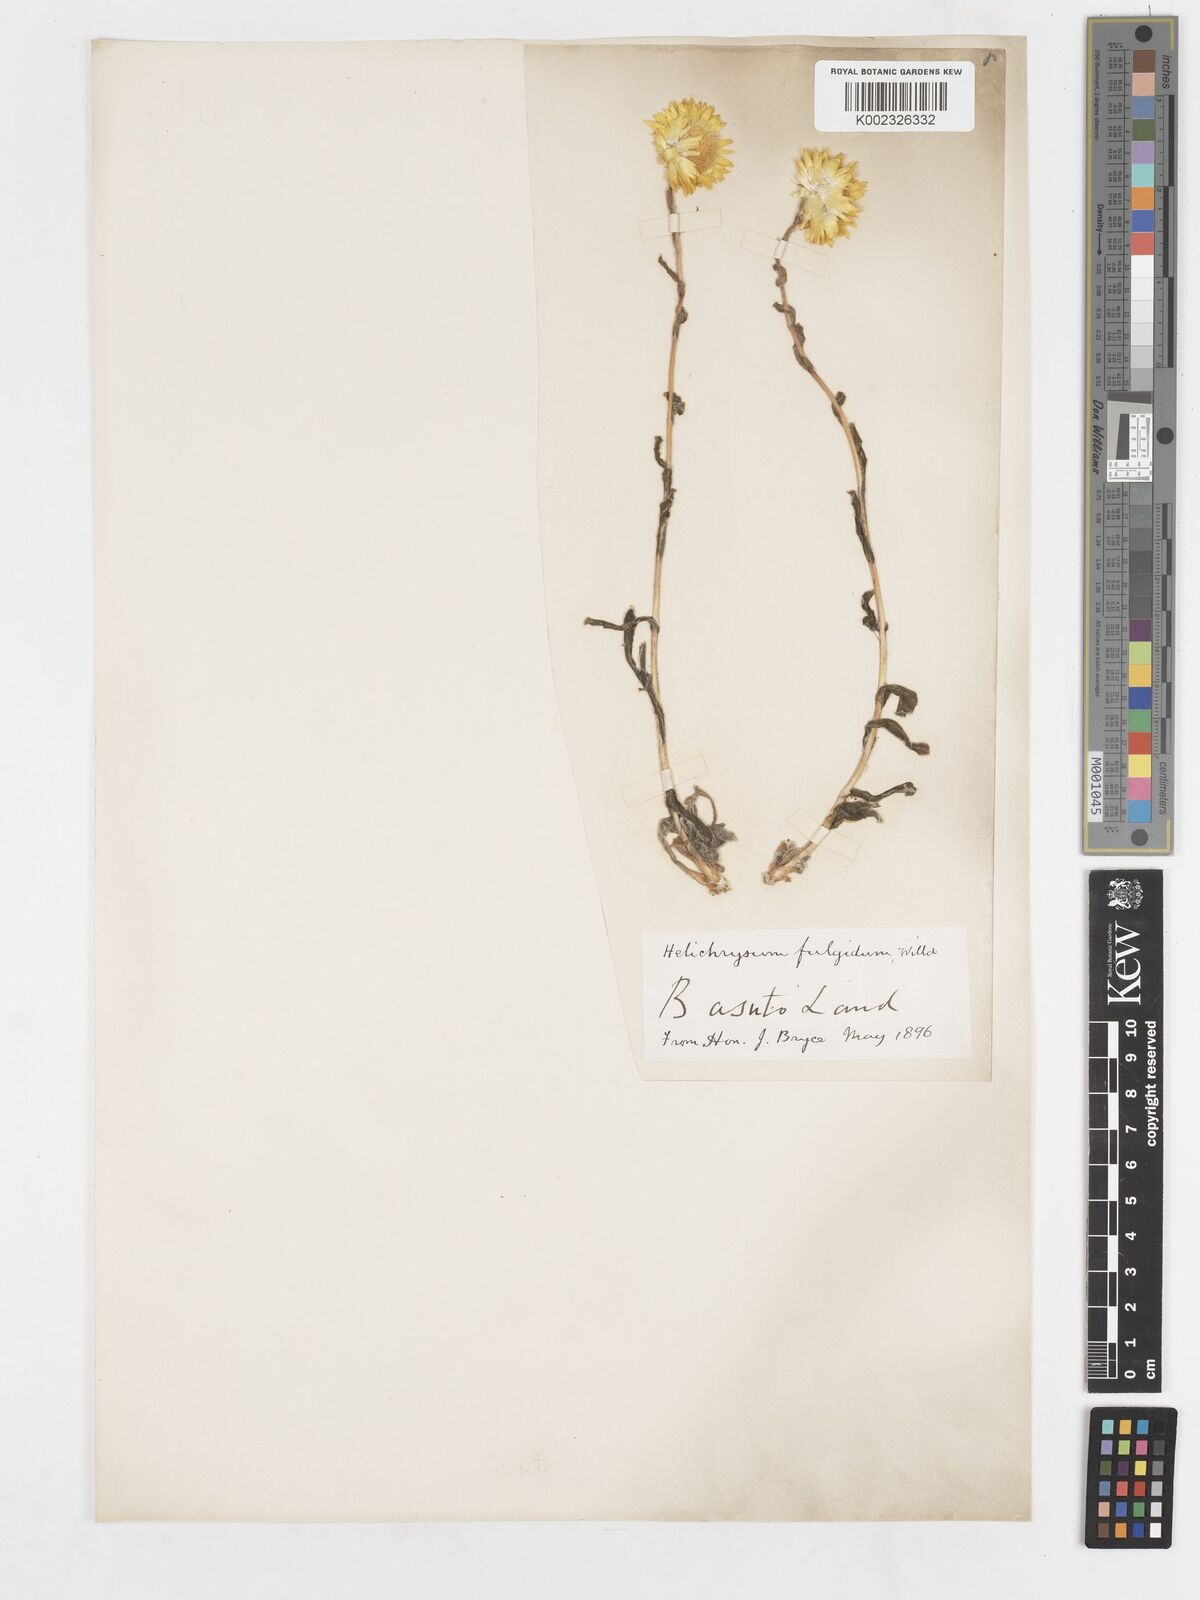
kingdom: Plantae
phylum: Tracheophyta
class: Magnoliopsida
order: Asterales
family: Asteraceae
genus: Helichrysum
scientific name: Helichrysum aureum
